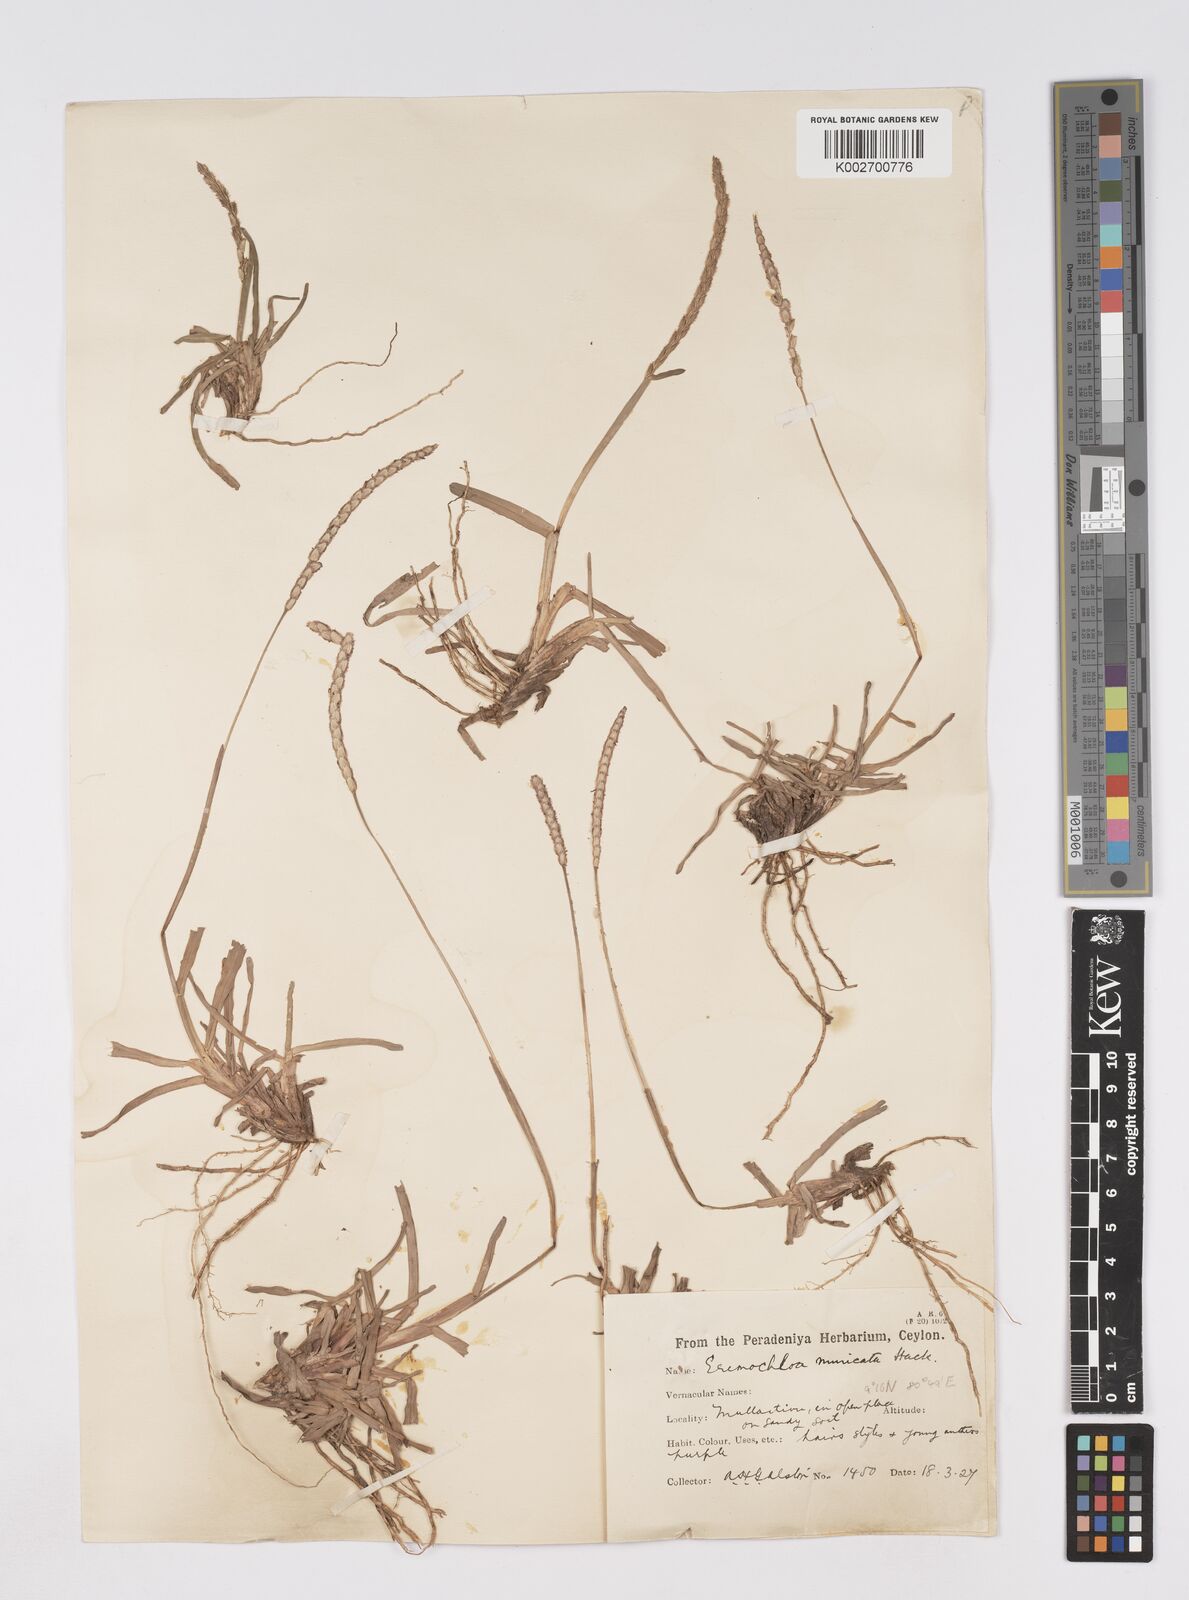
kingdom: Plantae
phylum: Tracheophyta
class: Liliopsida
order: Poales
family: Poaceae
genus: Eremochloa
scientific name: Eremochloa muricata
